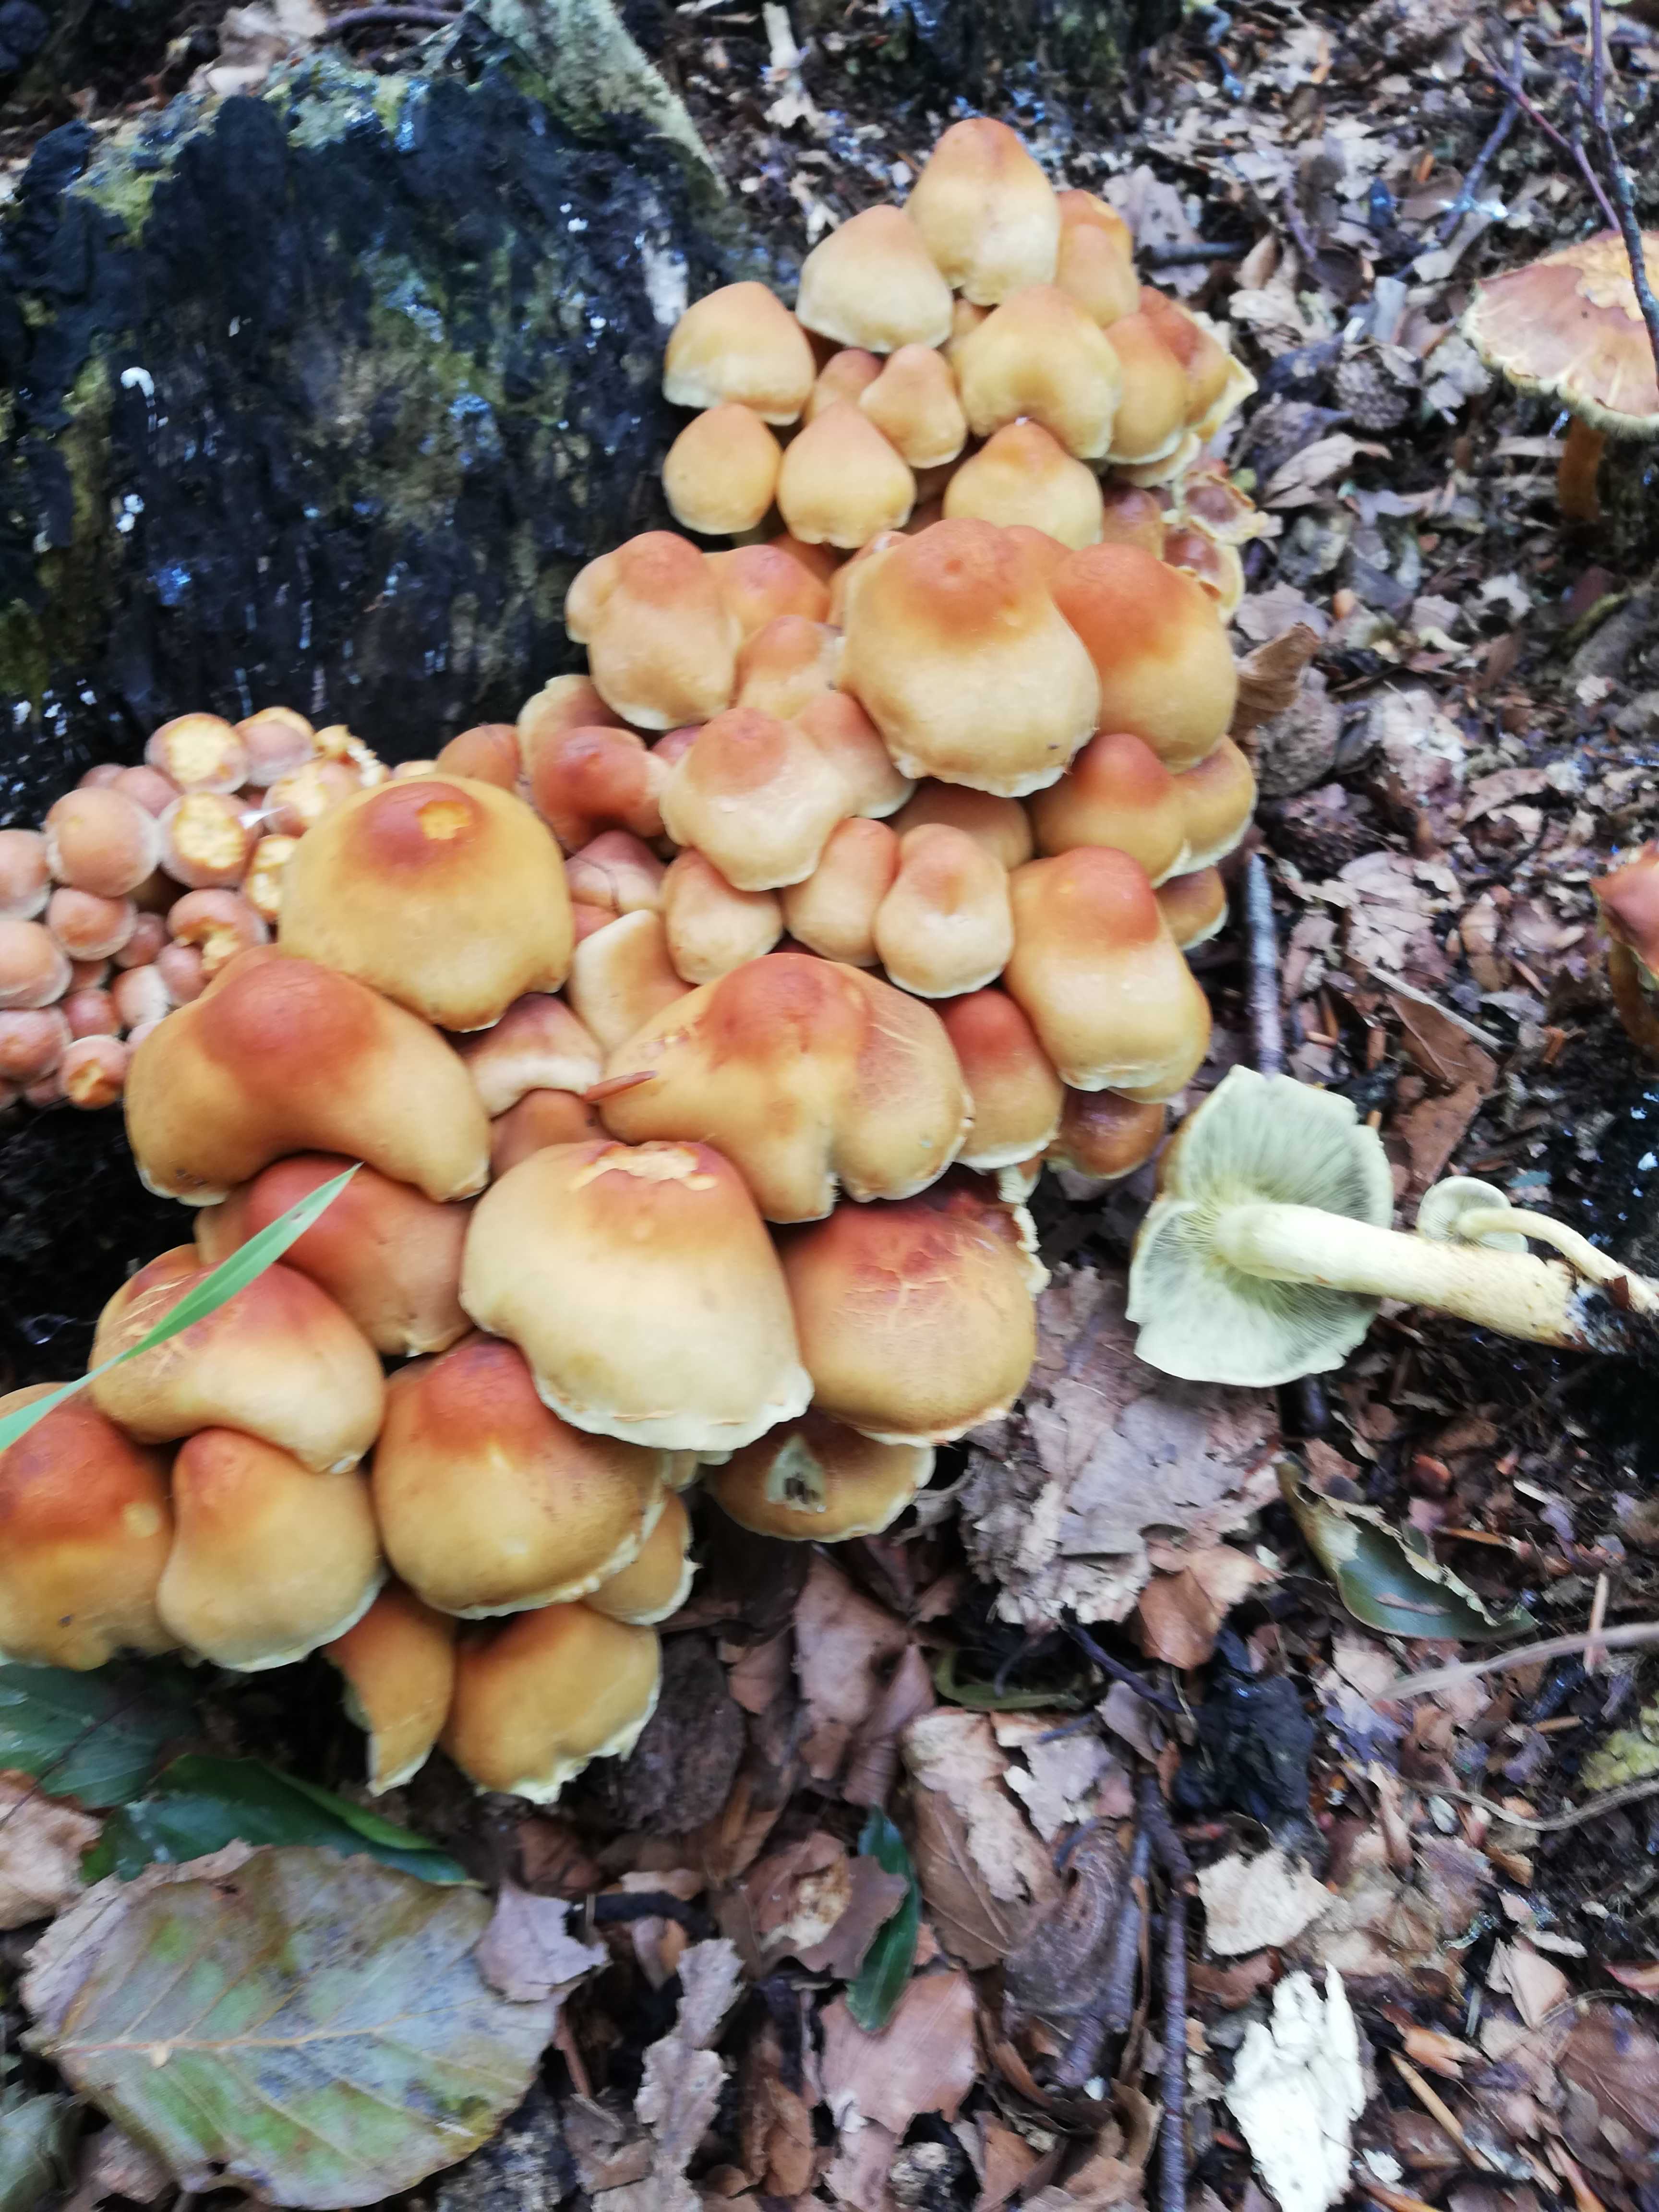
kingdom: Fungi
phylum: Basidiomycota
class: Agaricomycetes
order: Agaricales
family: Strophariaceae
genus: Hypholoma
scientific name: Hypholoma fasciculare
